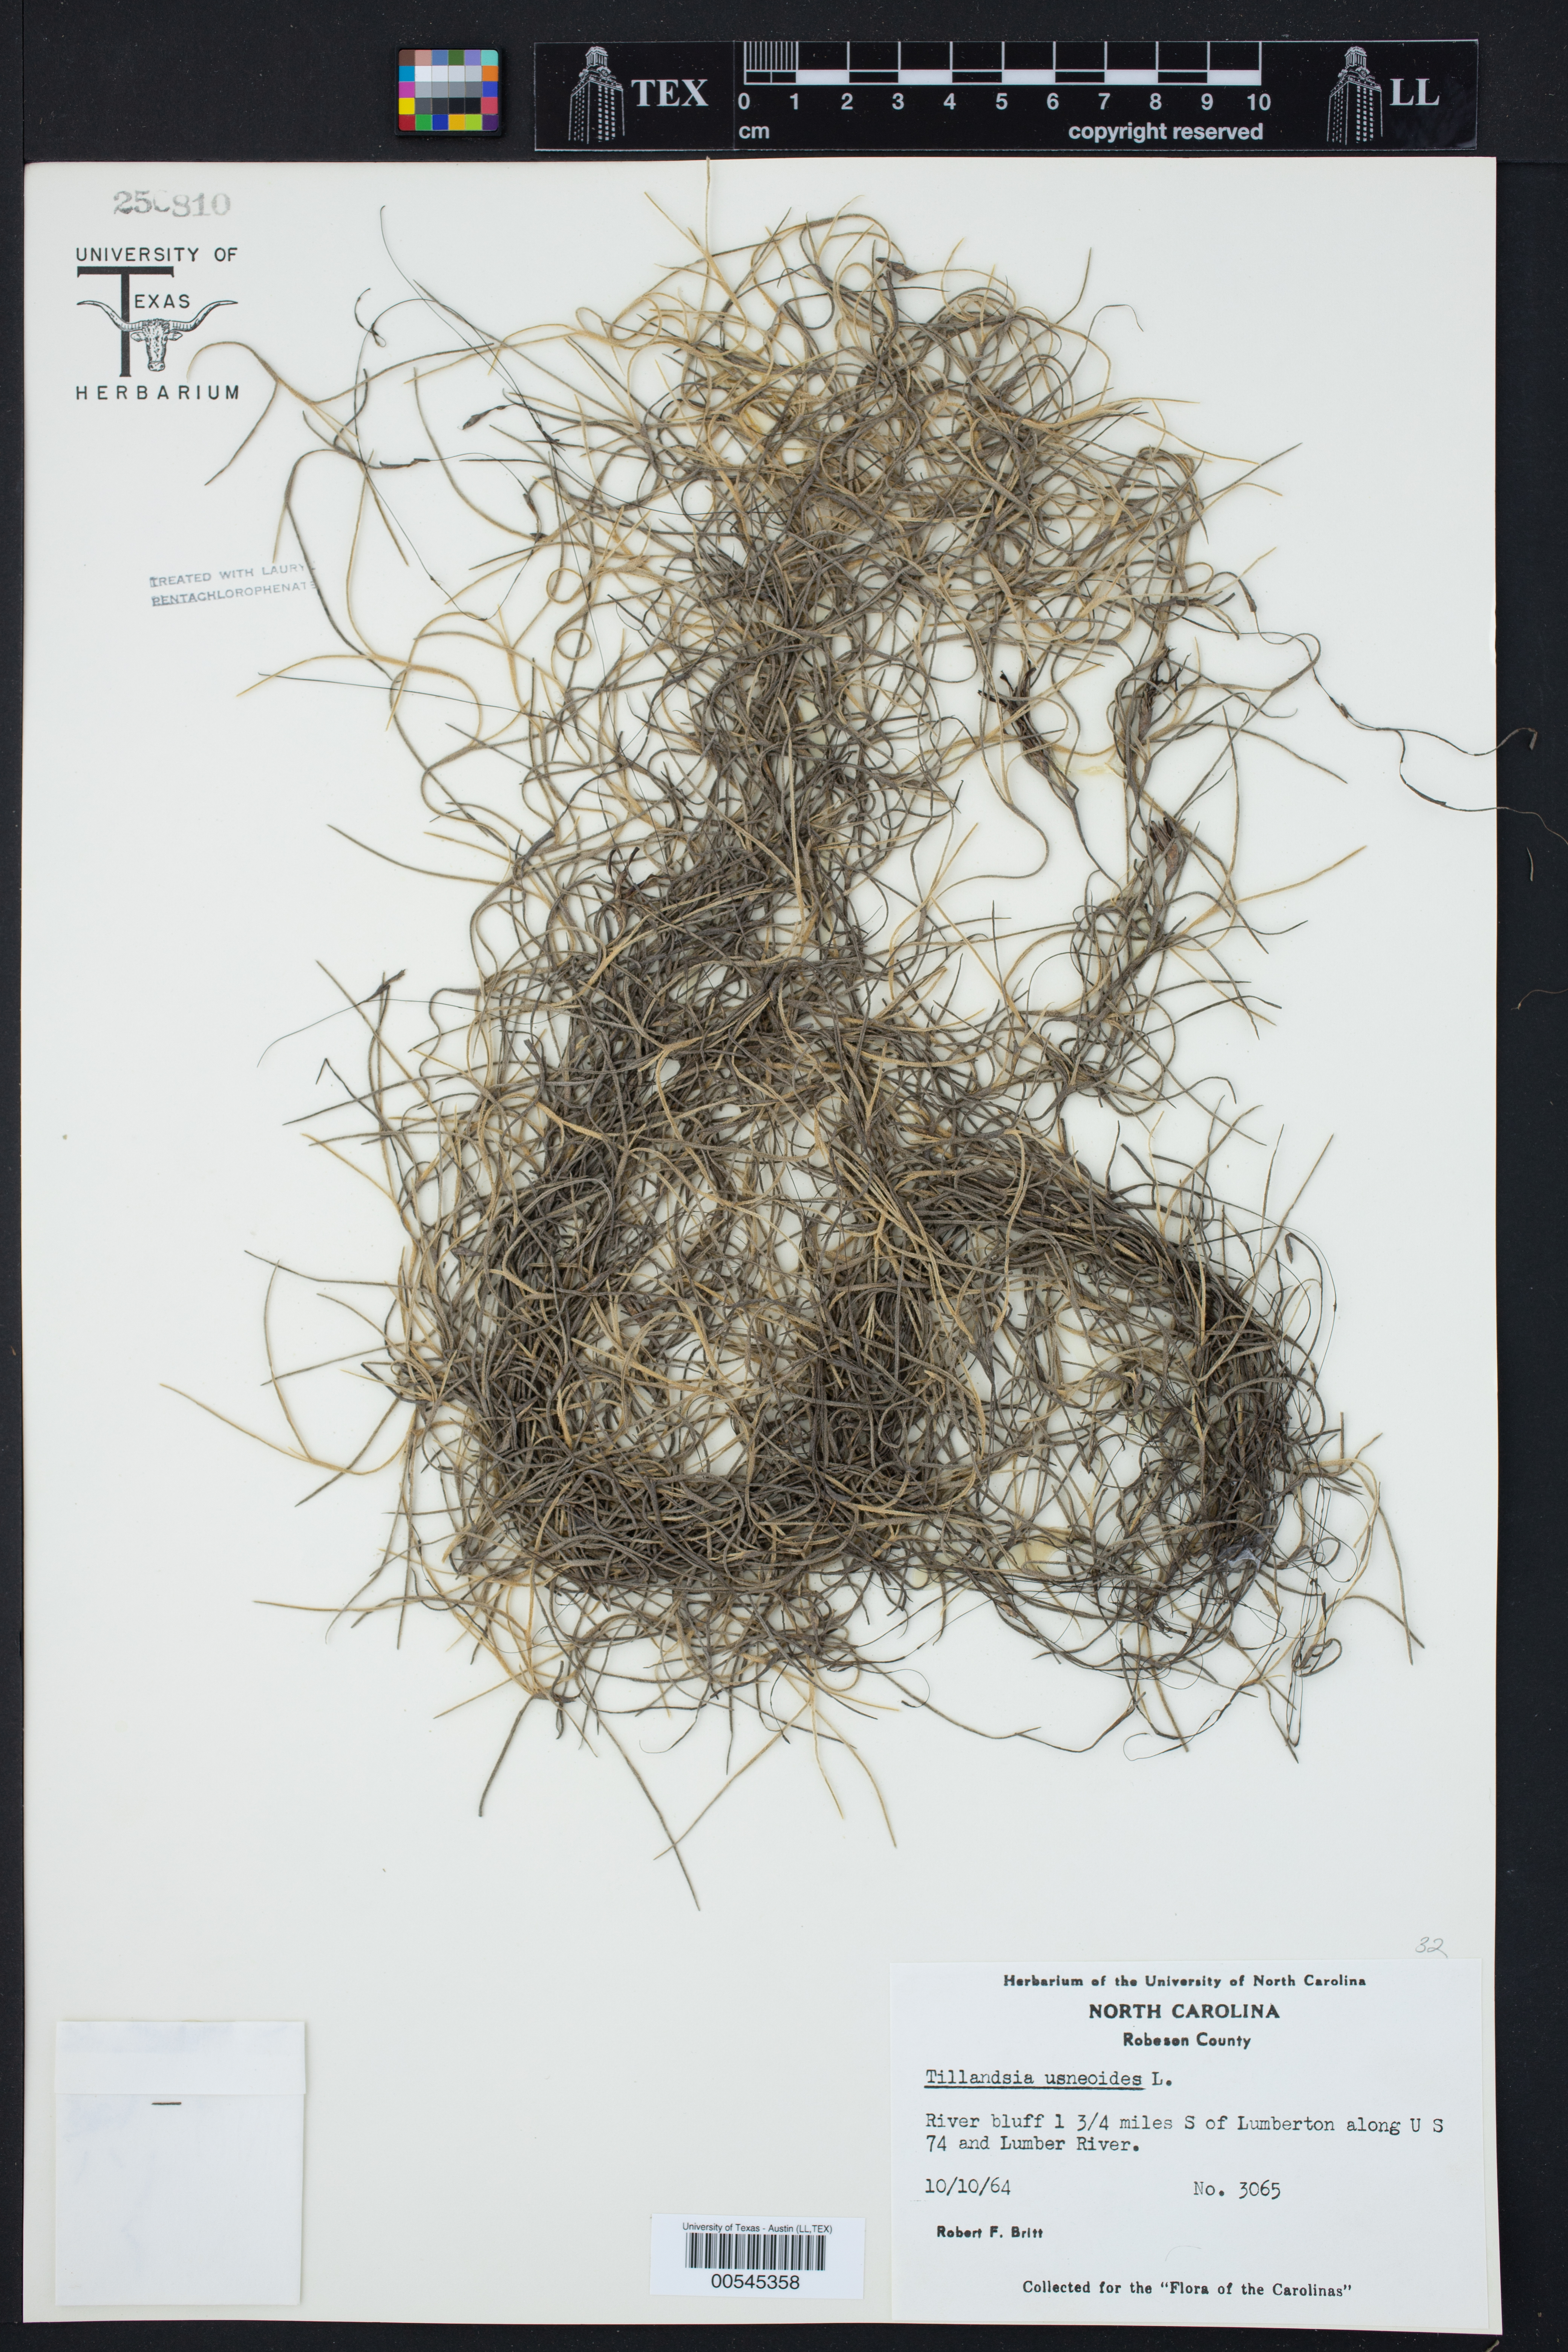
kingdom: Plantae
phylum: Tracheophyta
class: Liliopsida
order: Poales
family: Bromeliaceae
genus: Tillandsia
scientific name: Tillandsia usneoides
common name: Spanish moss
